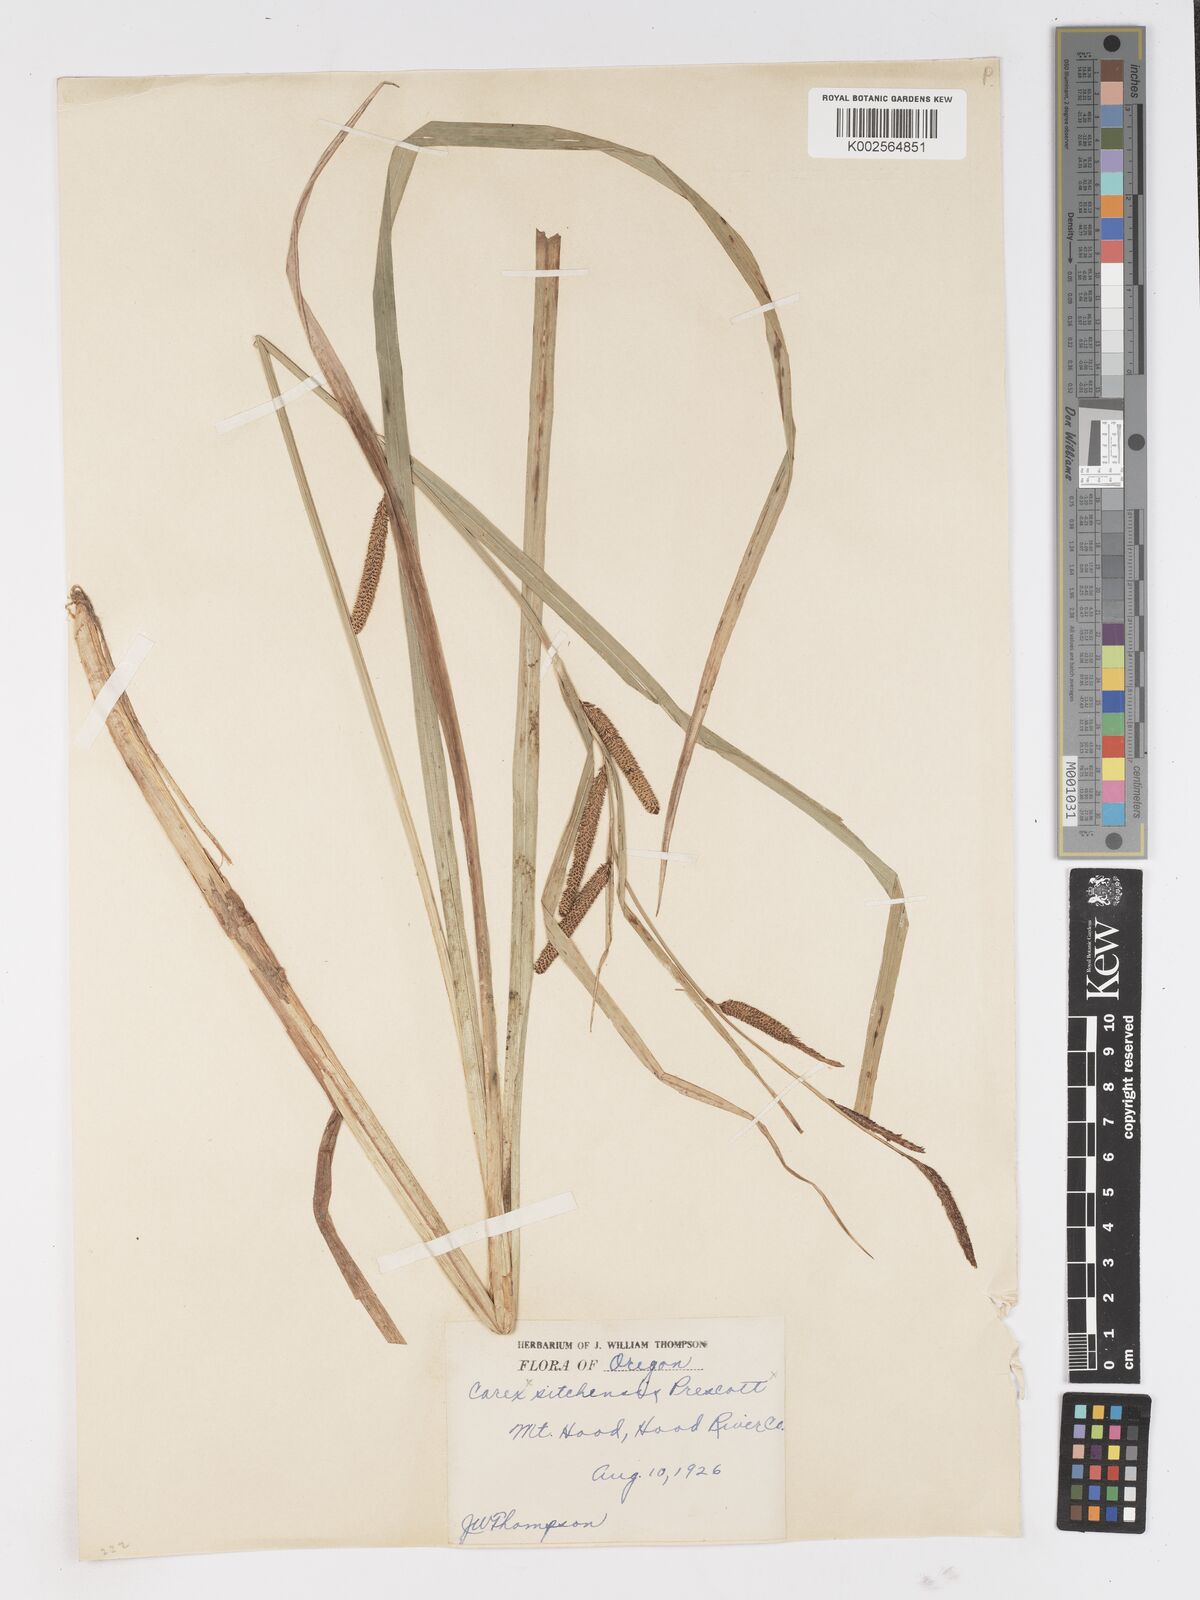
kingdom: Plantae
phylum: Tracheophyta
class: Liliopsida
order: Poales
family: Cyperaceae
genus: Carex
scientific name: Carex
